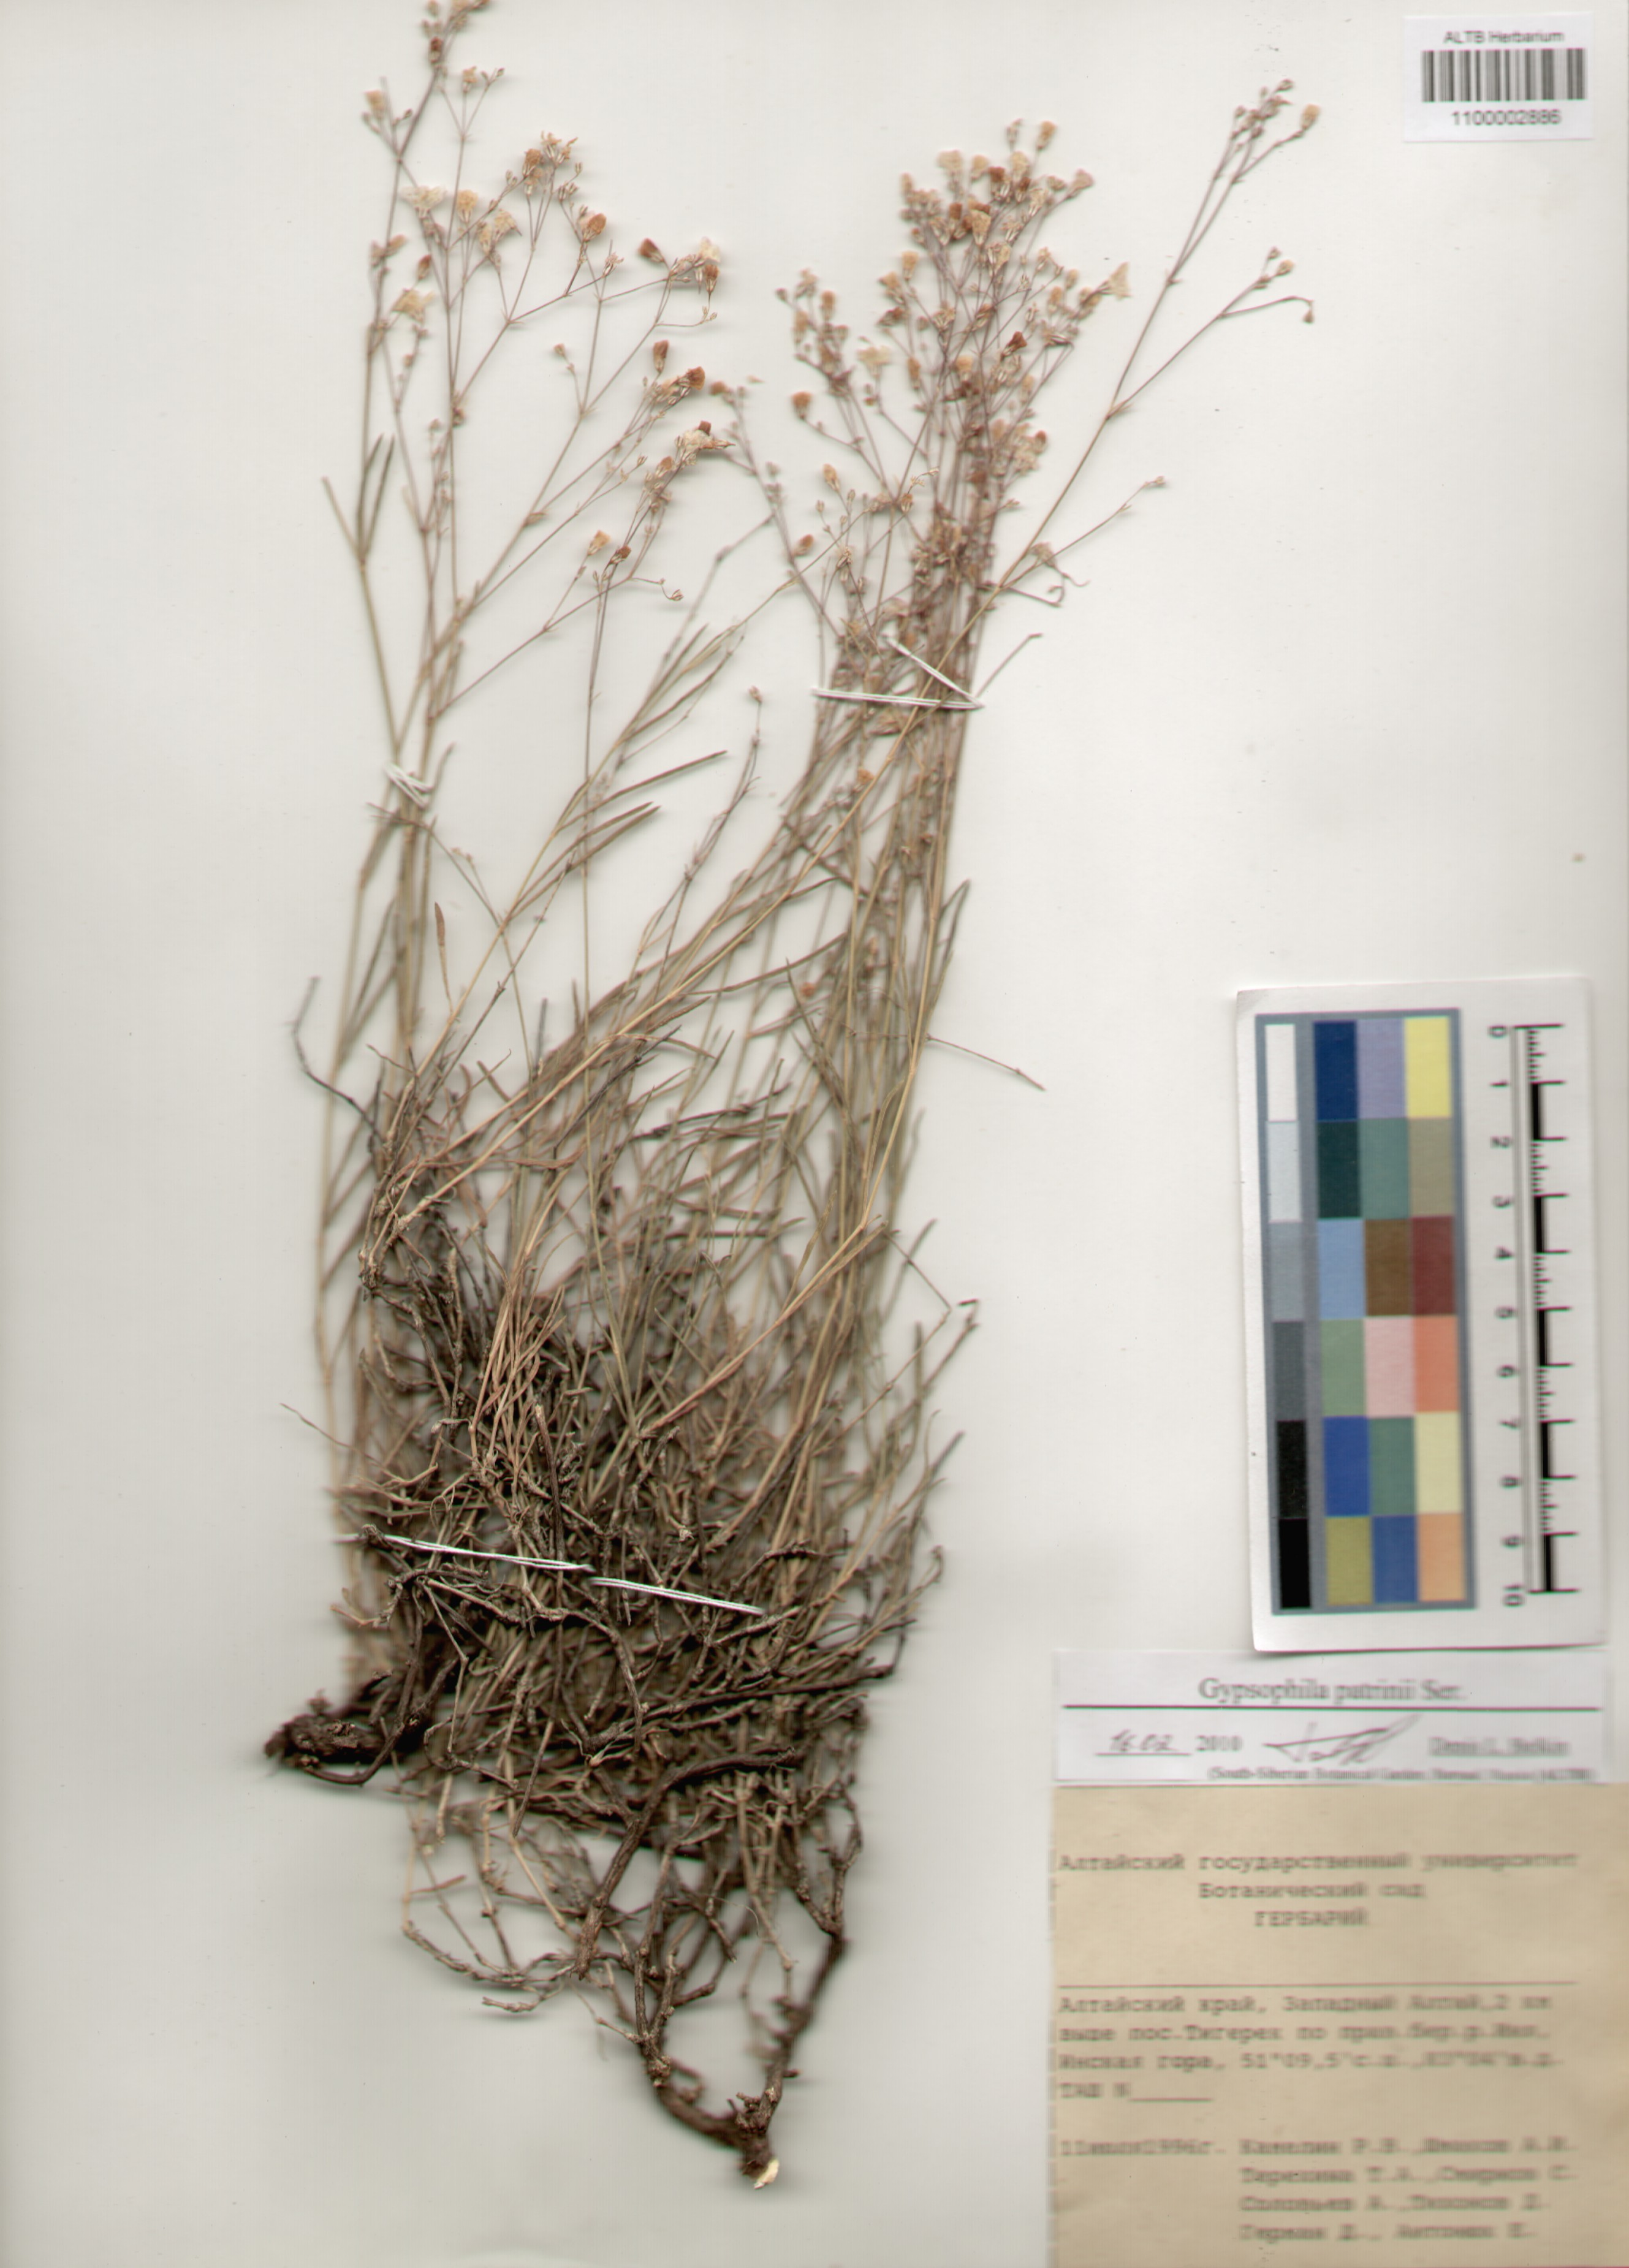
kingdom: Plantae
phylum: Tracheophyta
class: Magnoliopsida
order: Caryophyllales
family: Caryophyllaceae
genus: Gypsophila
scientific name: Gypsophila patrinii
